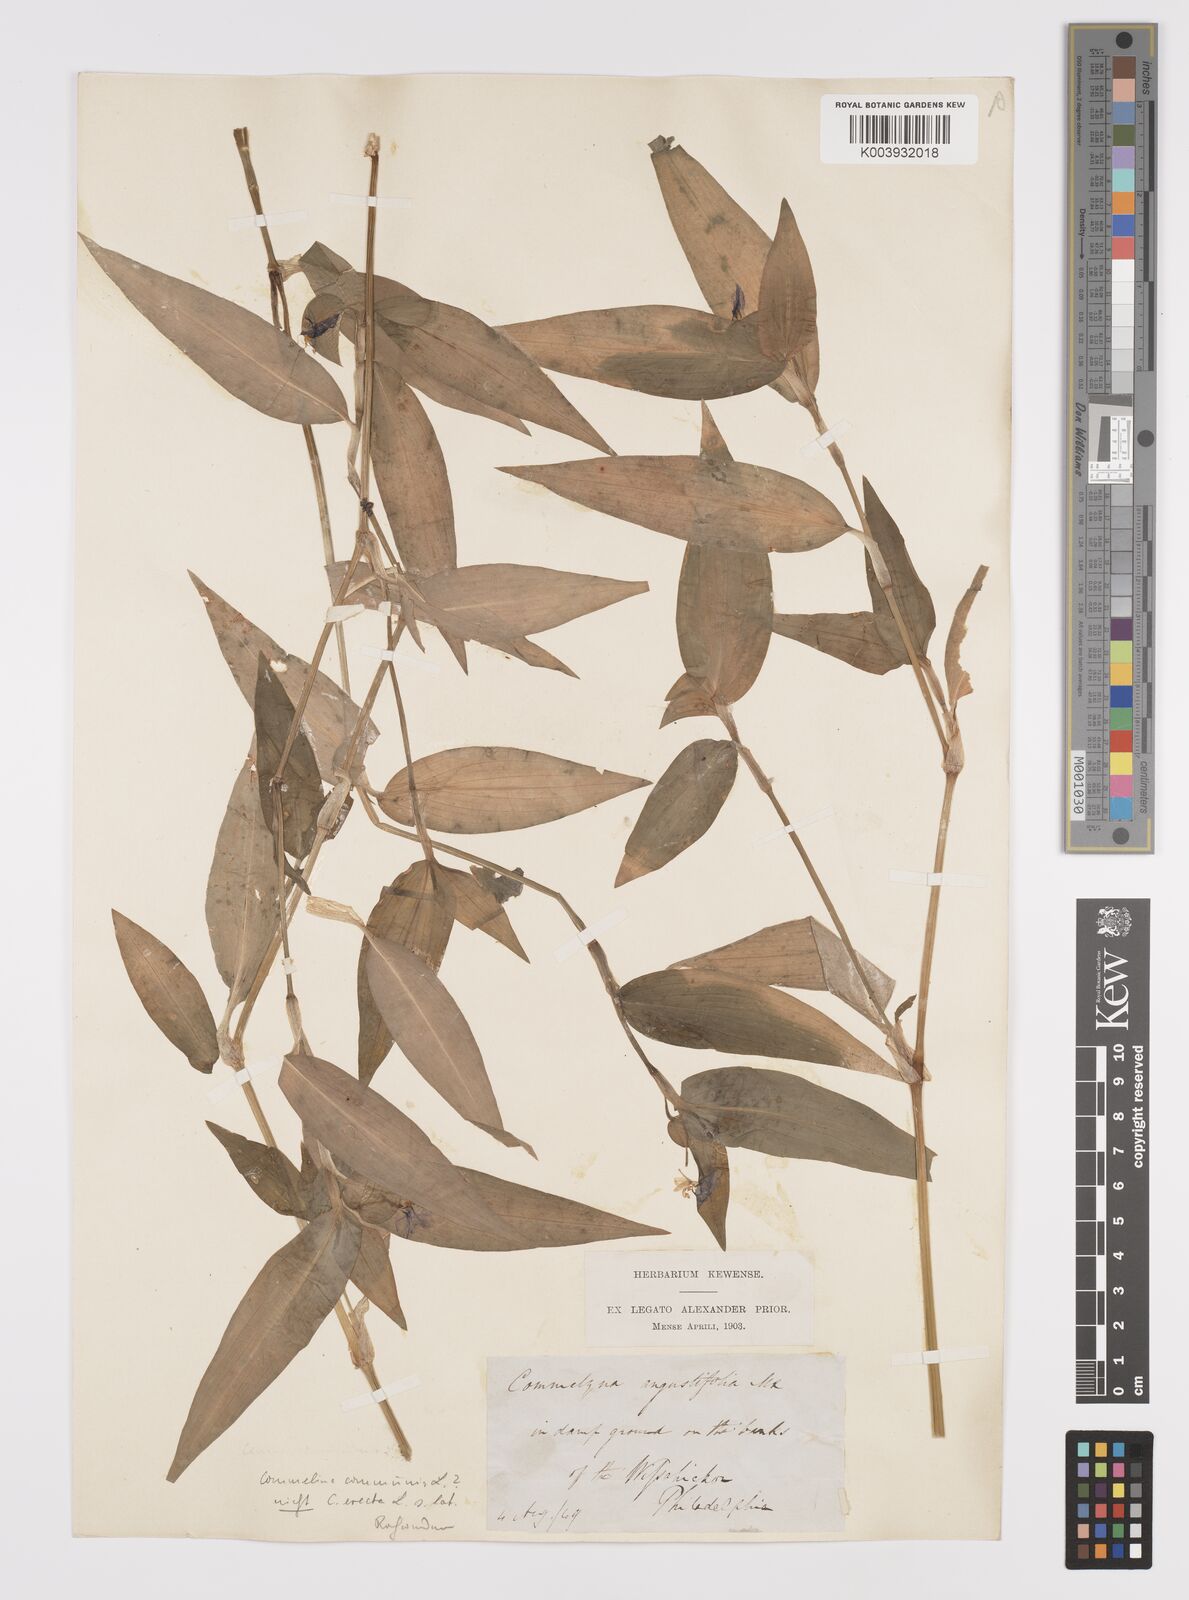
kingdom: Plantae
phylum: Tracheophyta
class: Liliopsida
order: Commelinales
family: Commelinaceae
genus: Commelina
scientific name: Commelina communis
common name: Asiatic dayflower
